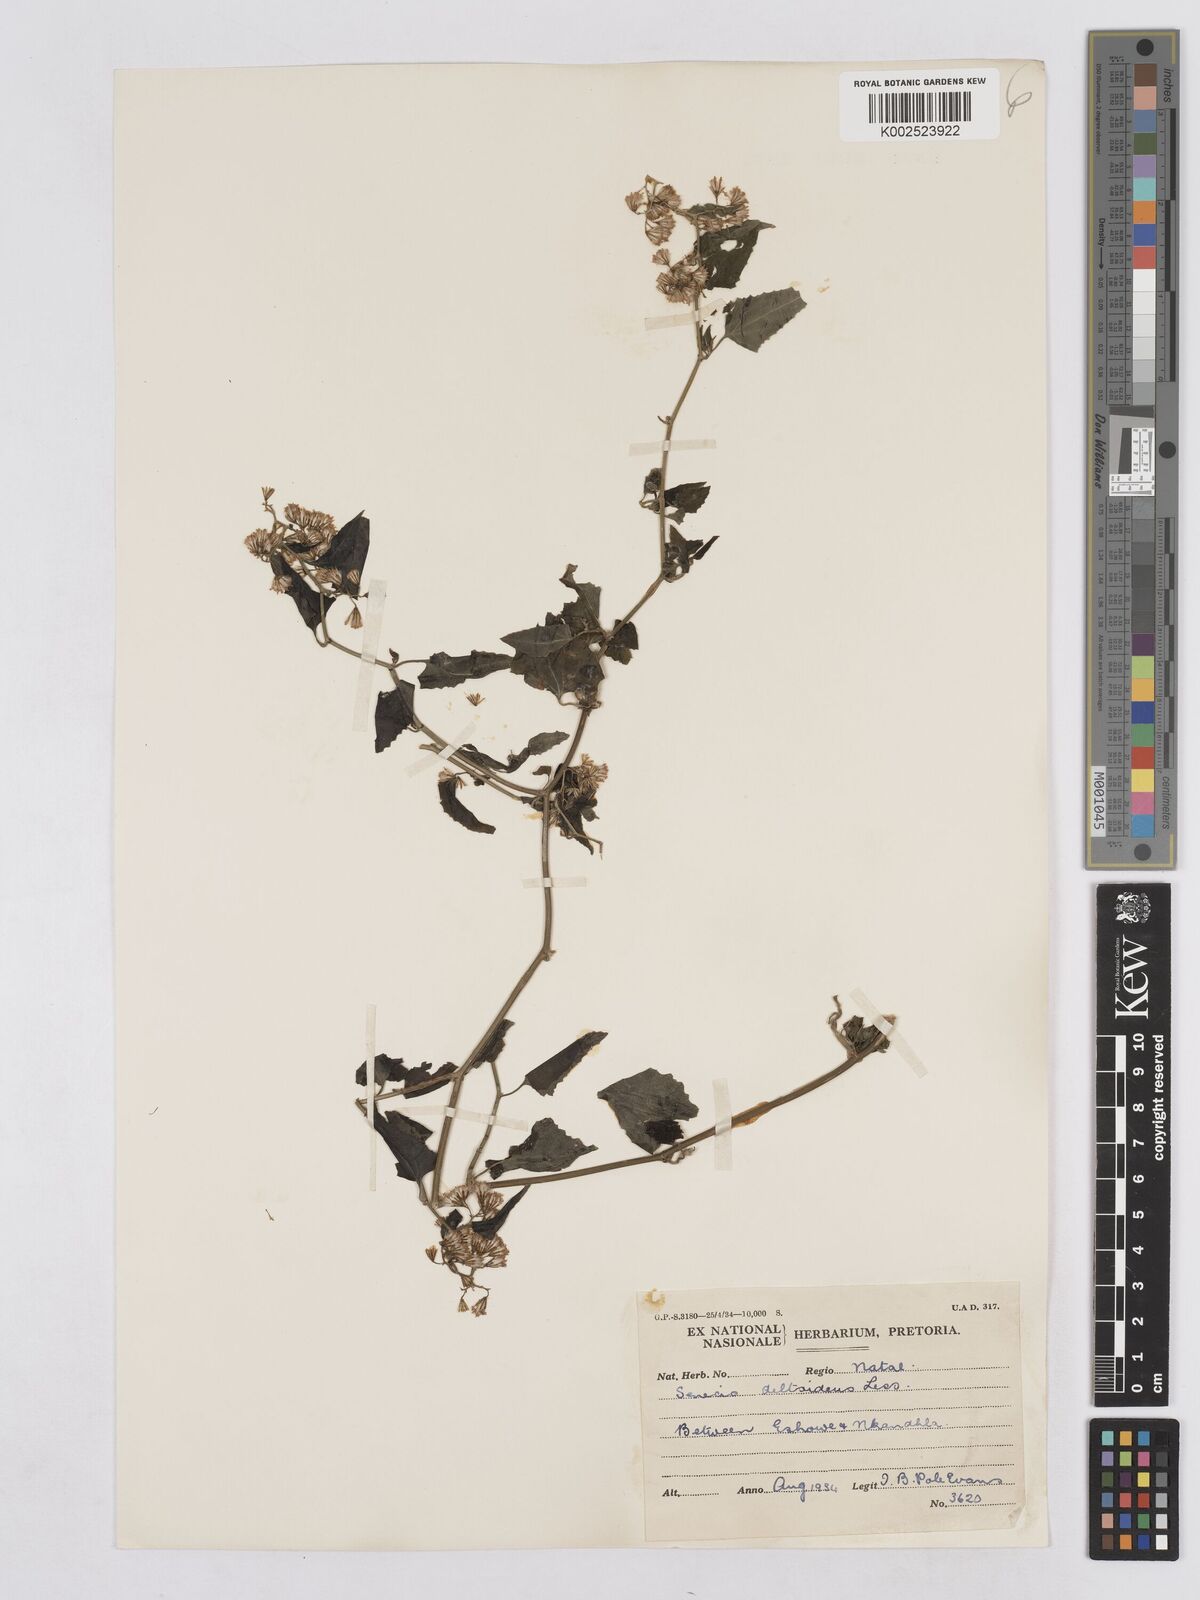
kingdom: Plantae
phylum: Tracheophyta
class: Magnoliopsida
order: Asterales
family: Asteraceae
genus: Senecio
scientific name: Senecio deltoideus
